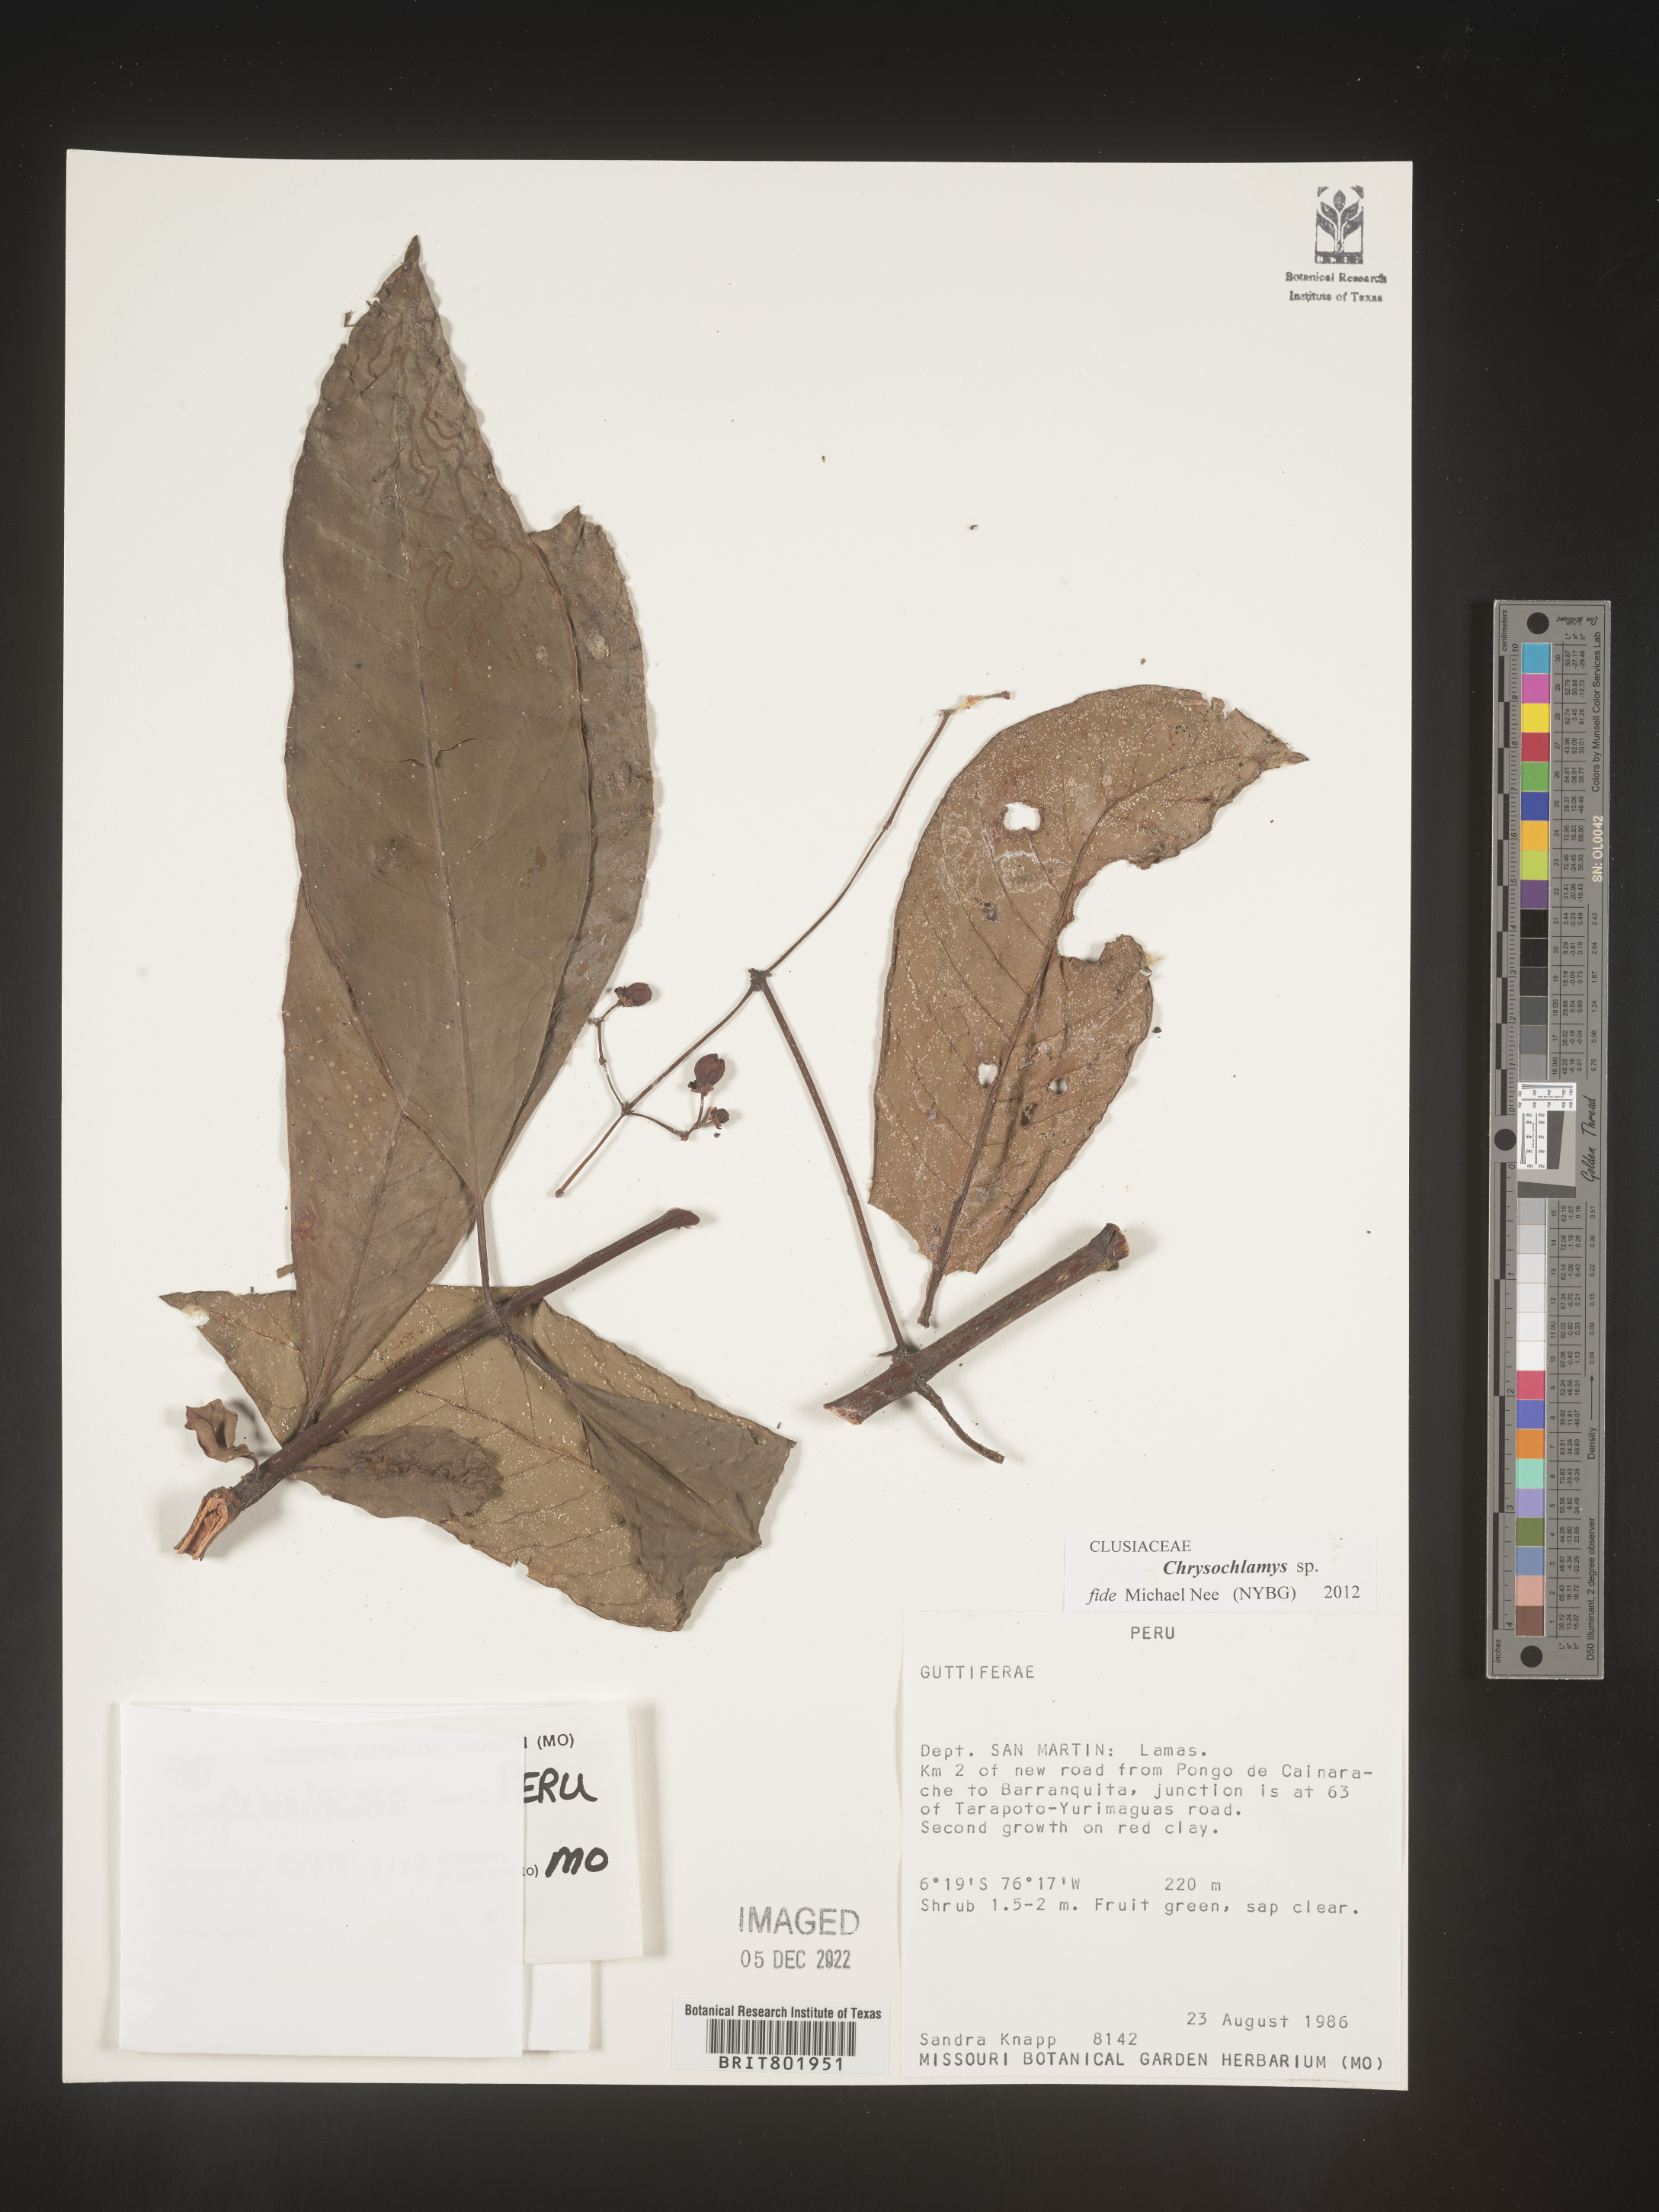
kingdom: Plantae
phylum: Tracheophyta
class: Magnoliopsida
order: Malpighiales
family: Clusiaceae
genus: Chrysochlamys
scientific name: Chrysochlamys
